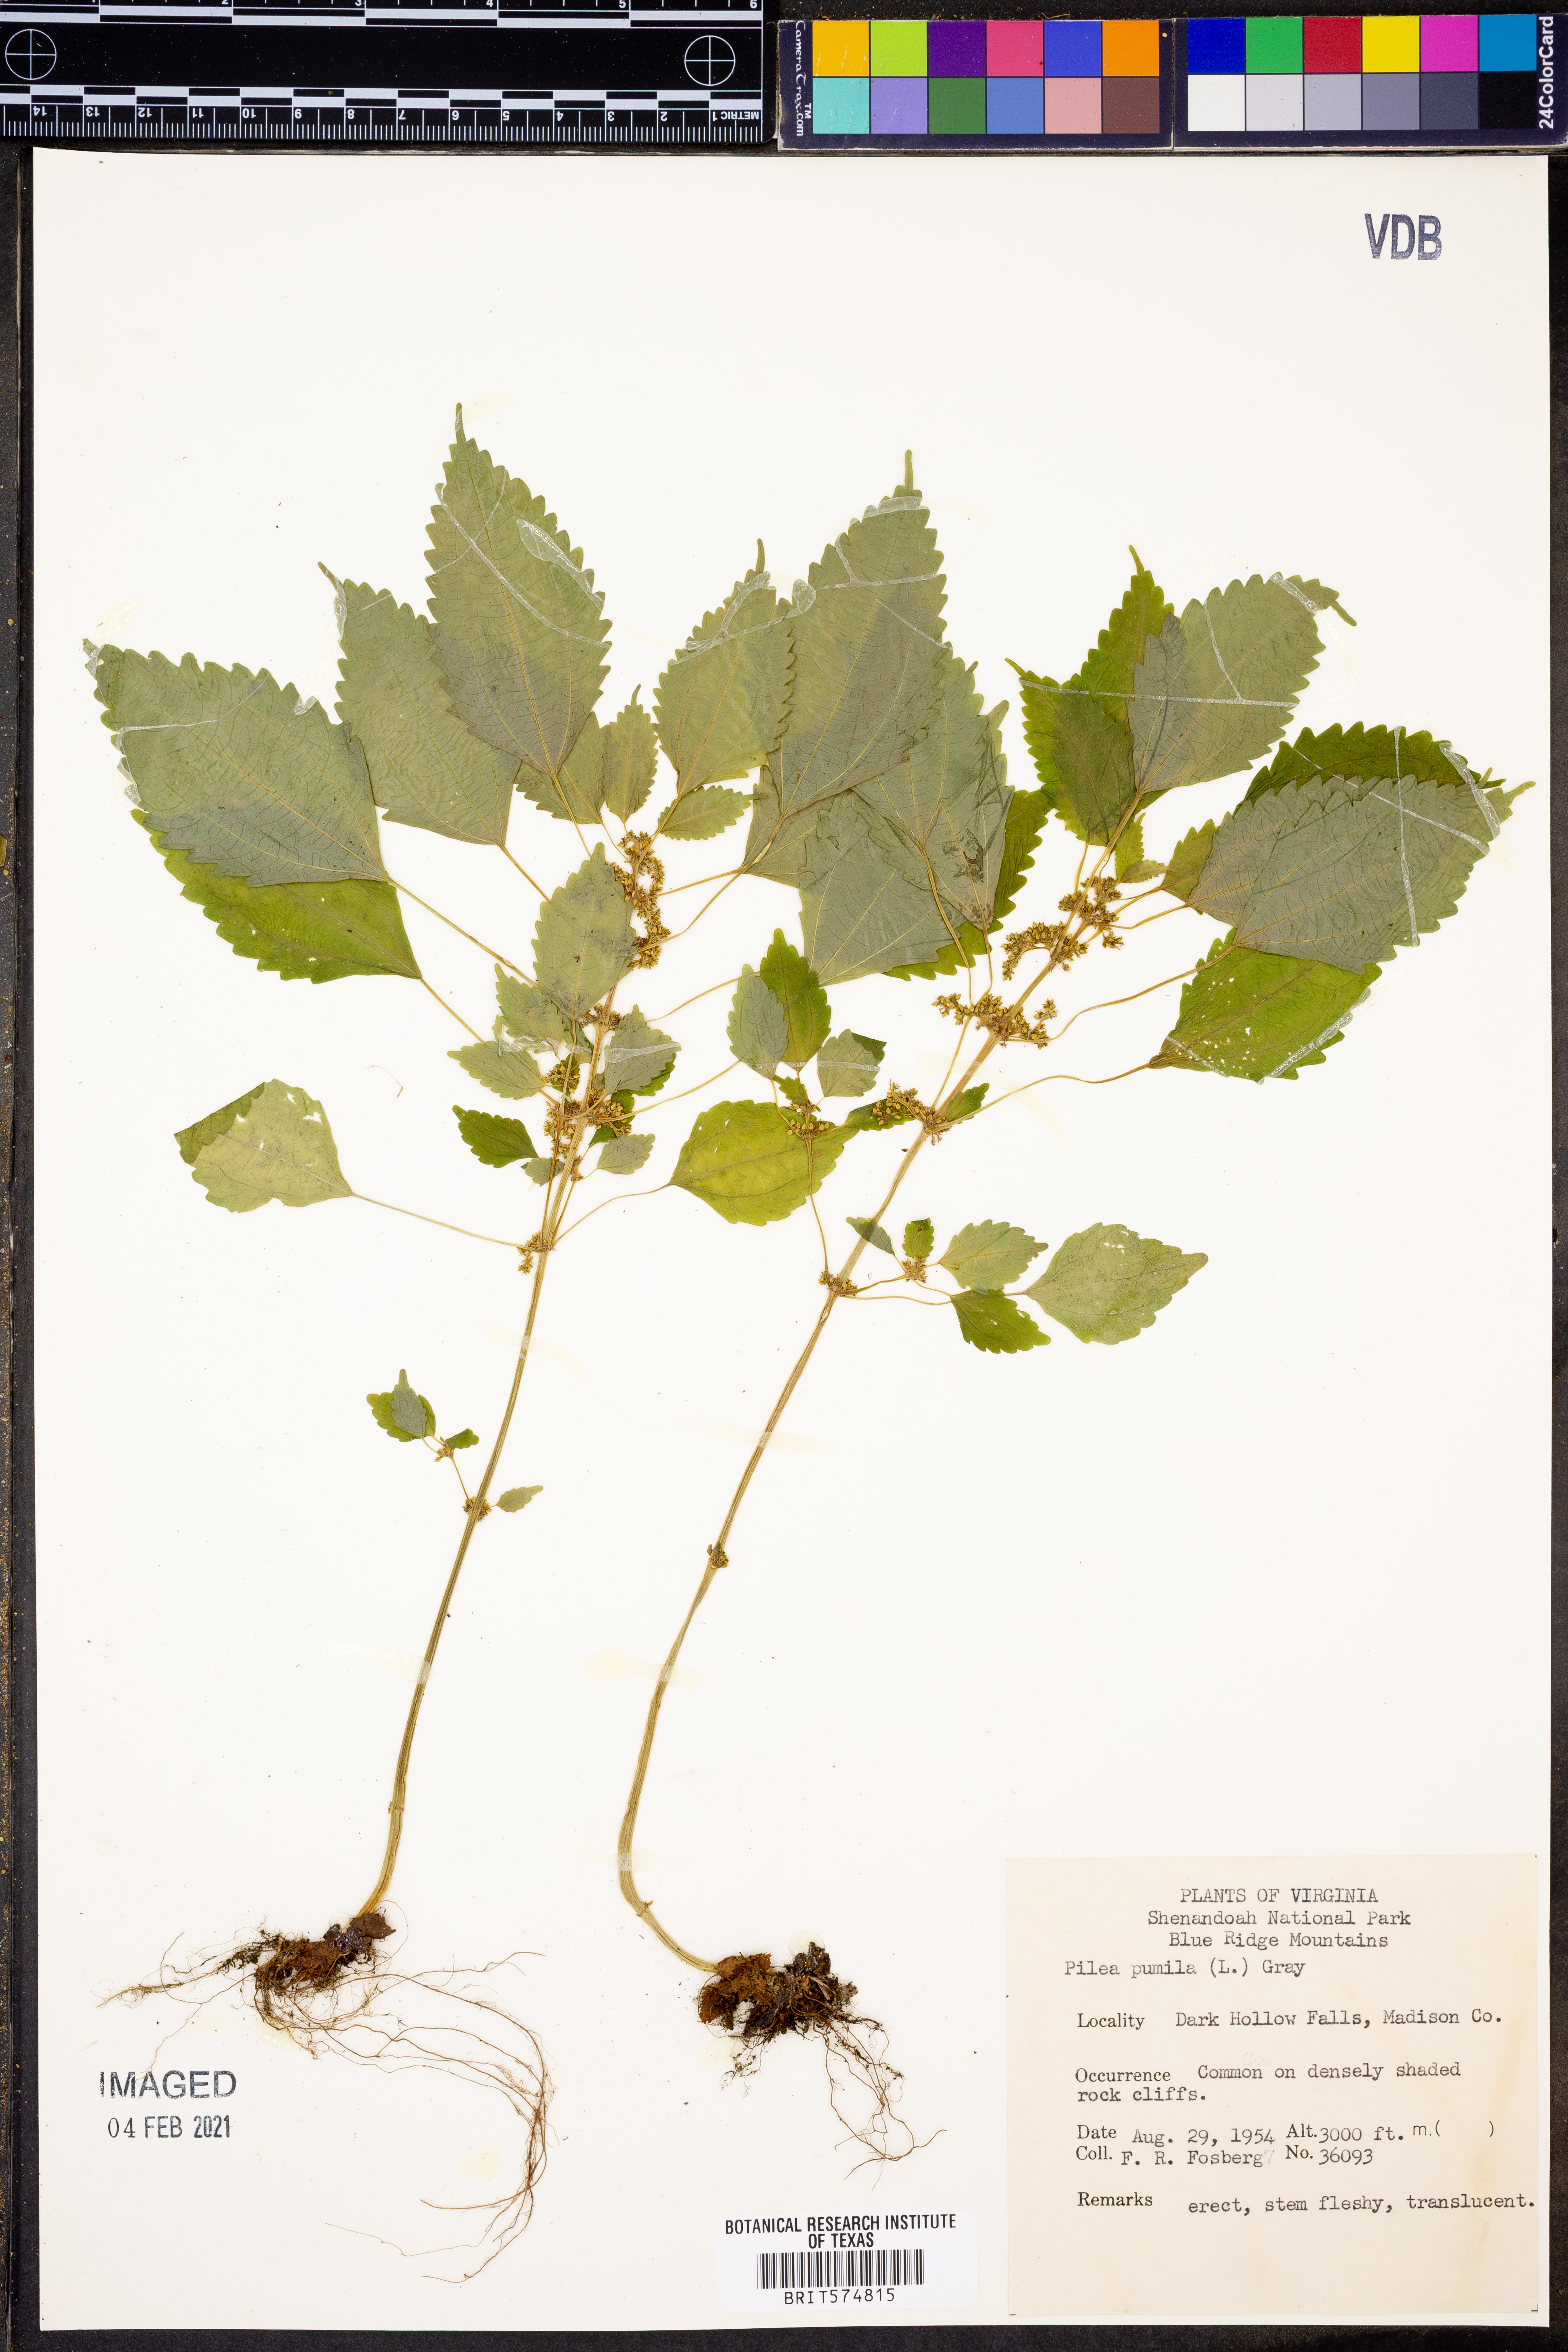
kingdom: Plantae
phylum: Tracheophyta
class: Magnoliopsida
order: Rosales
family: Urticaceae
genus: Pilea
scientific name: Pilea pumila
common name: Clearweed
